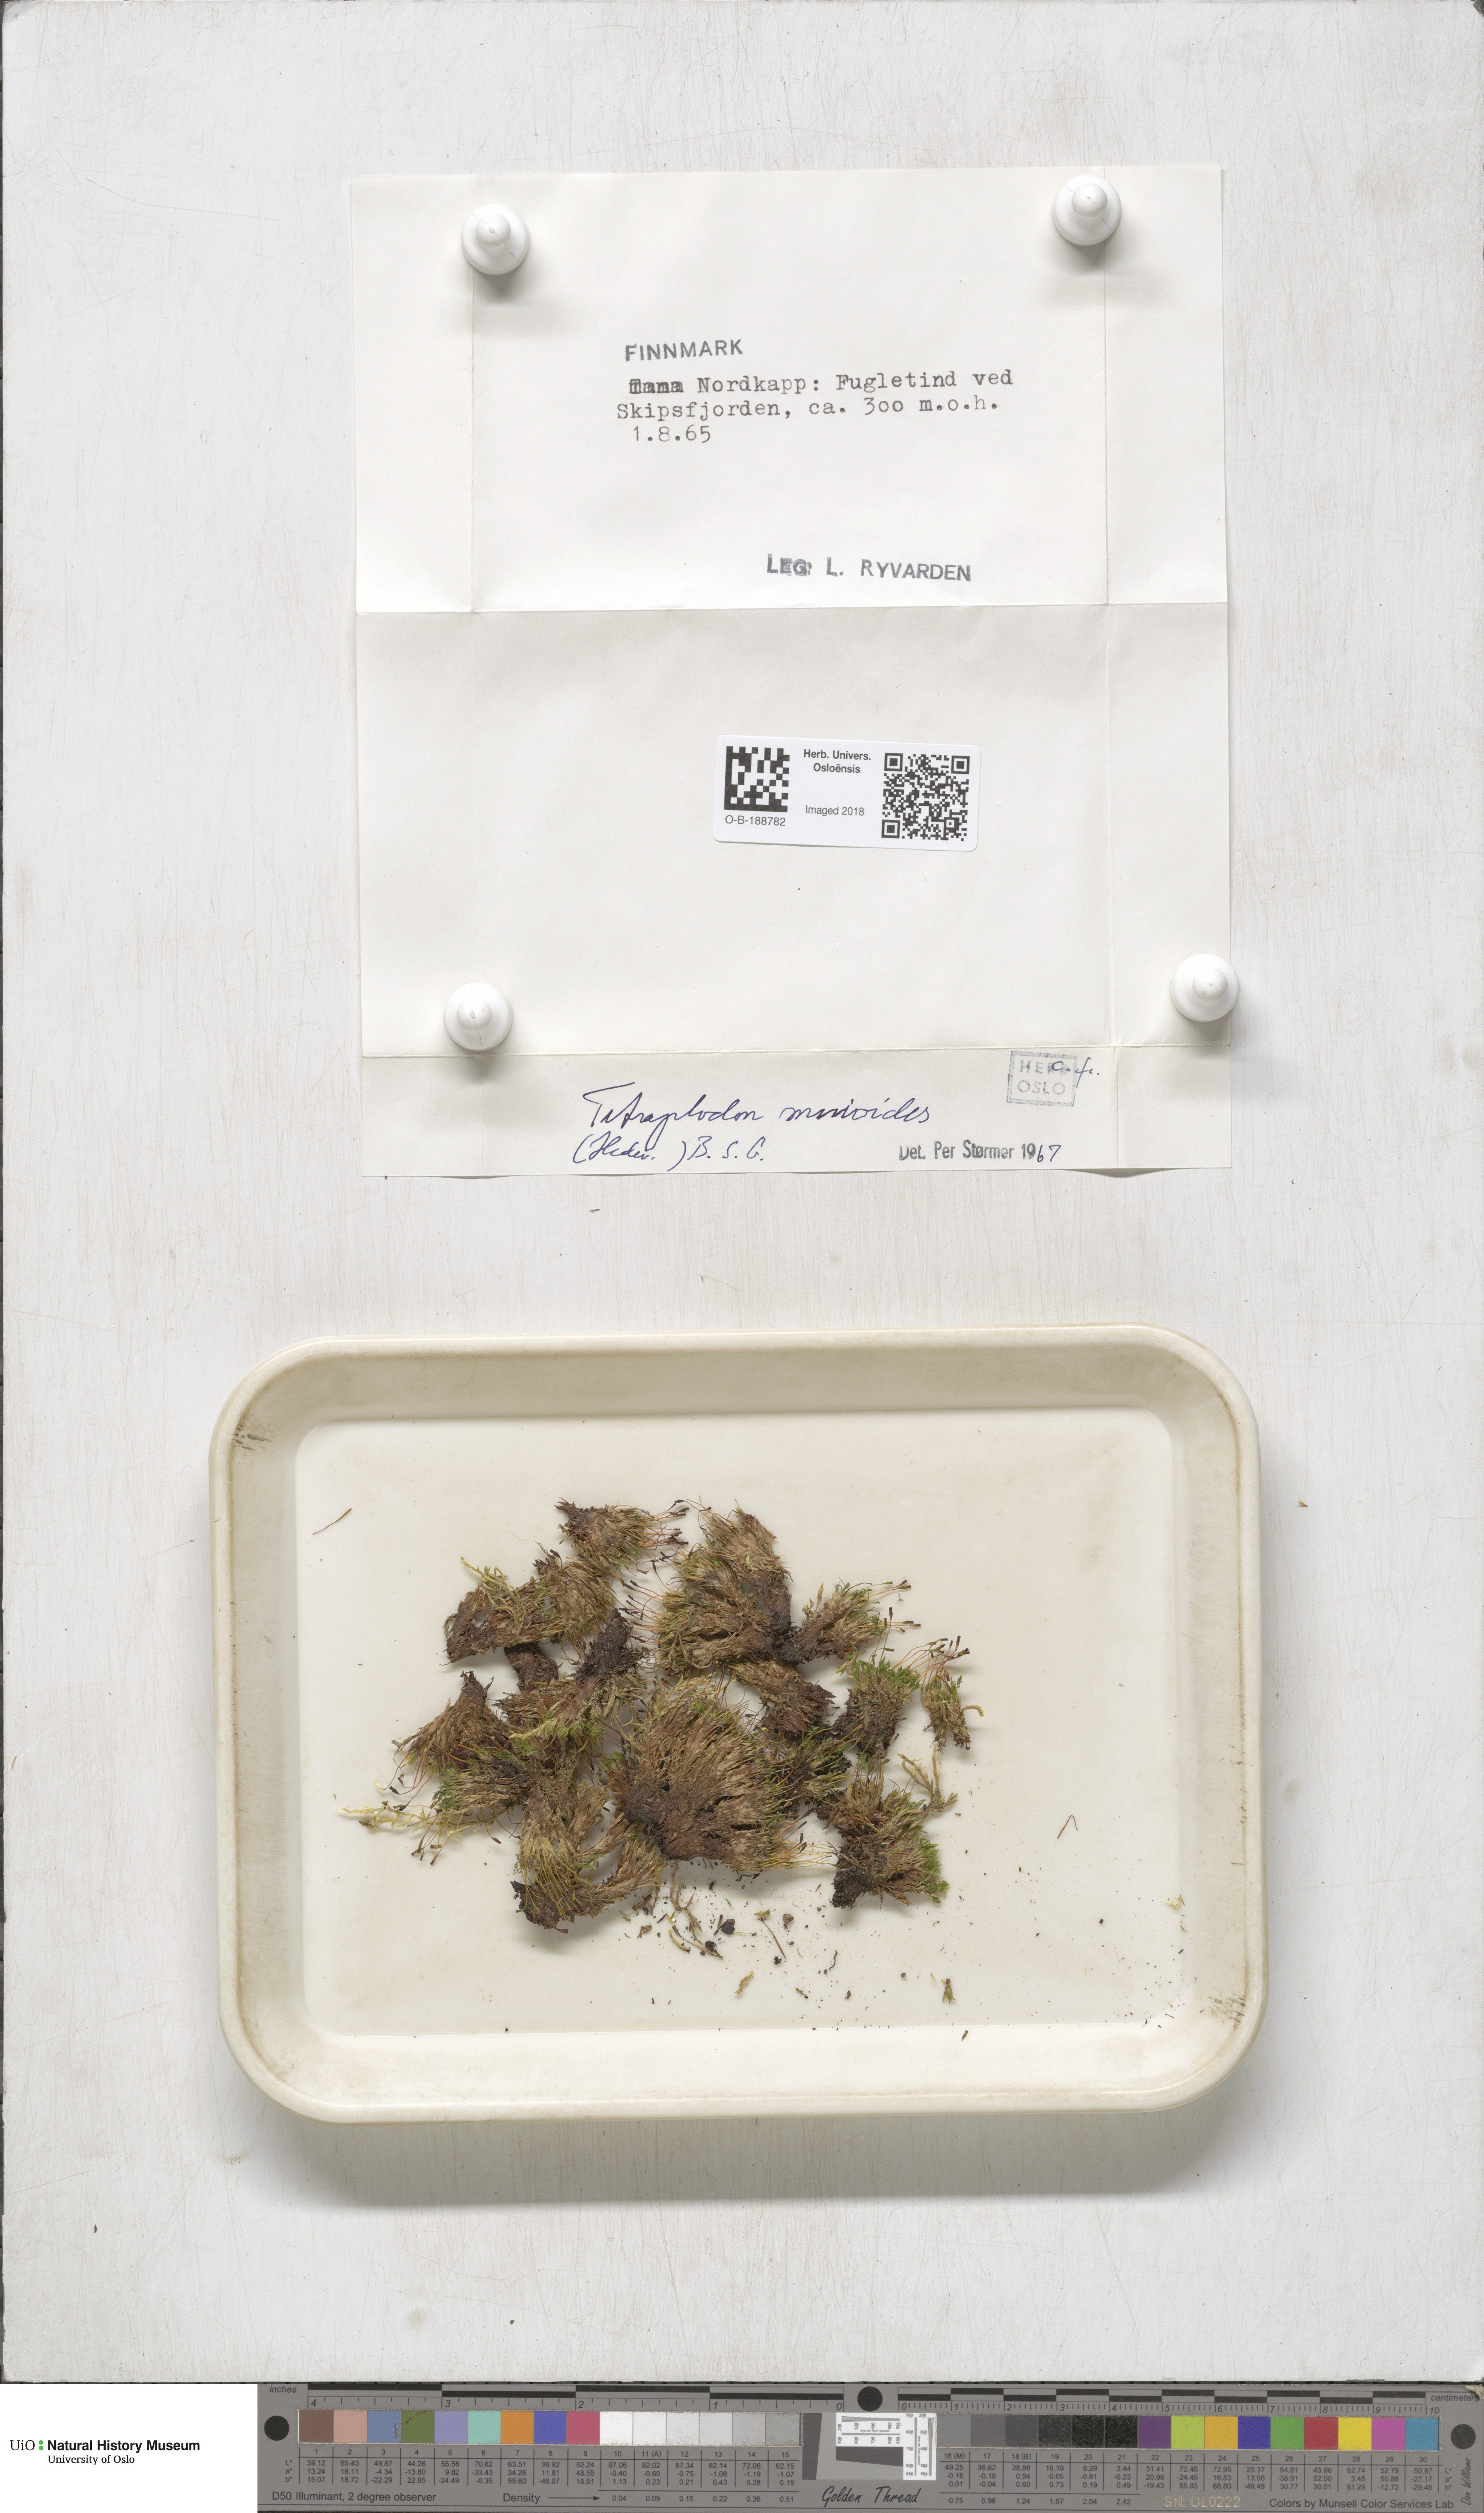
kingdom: Plantae
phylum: Bryophyta
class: Bryopsida
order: Splachnales
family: Splachnaceae
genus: Tetraplodon
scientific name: Tetraplodon mnioides
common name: Entire-leaved nitrogen moss
